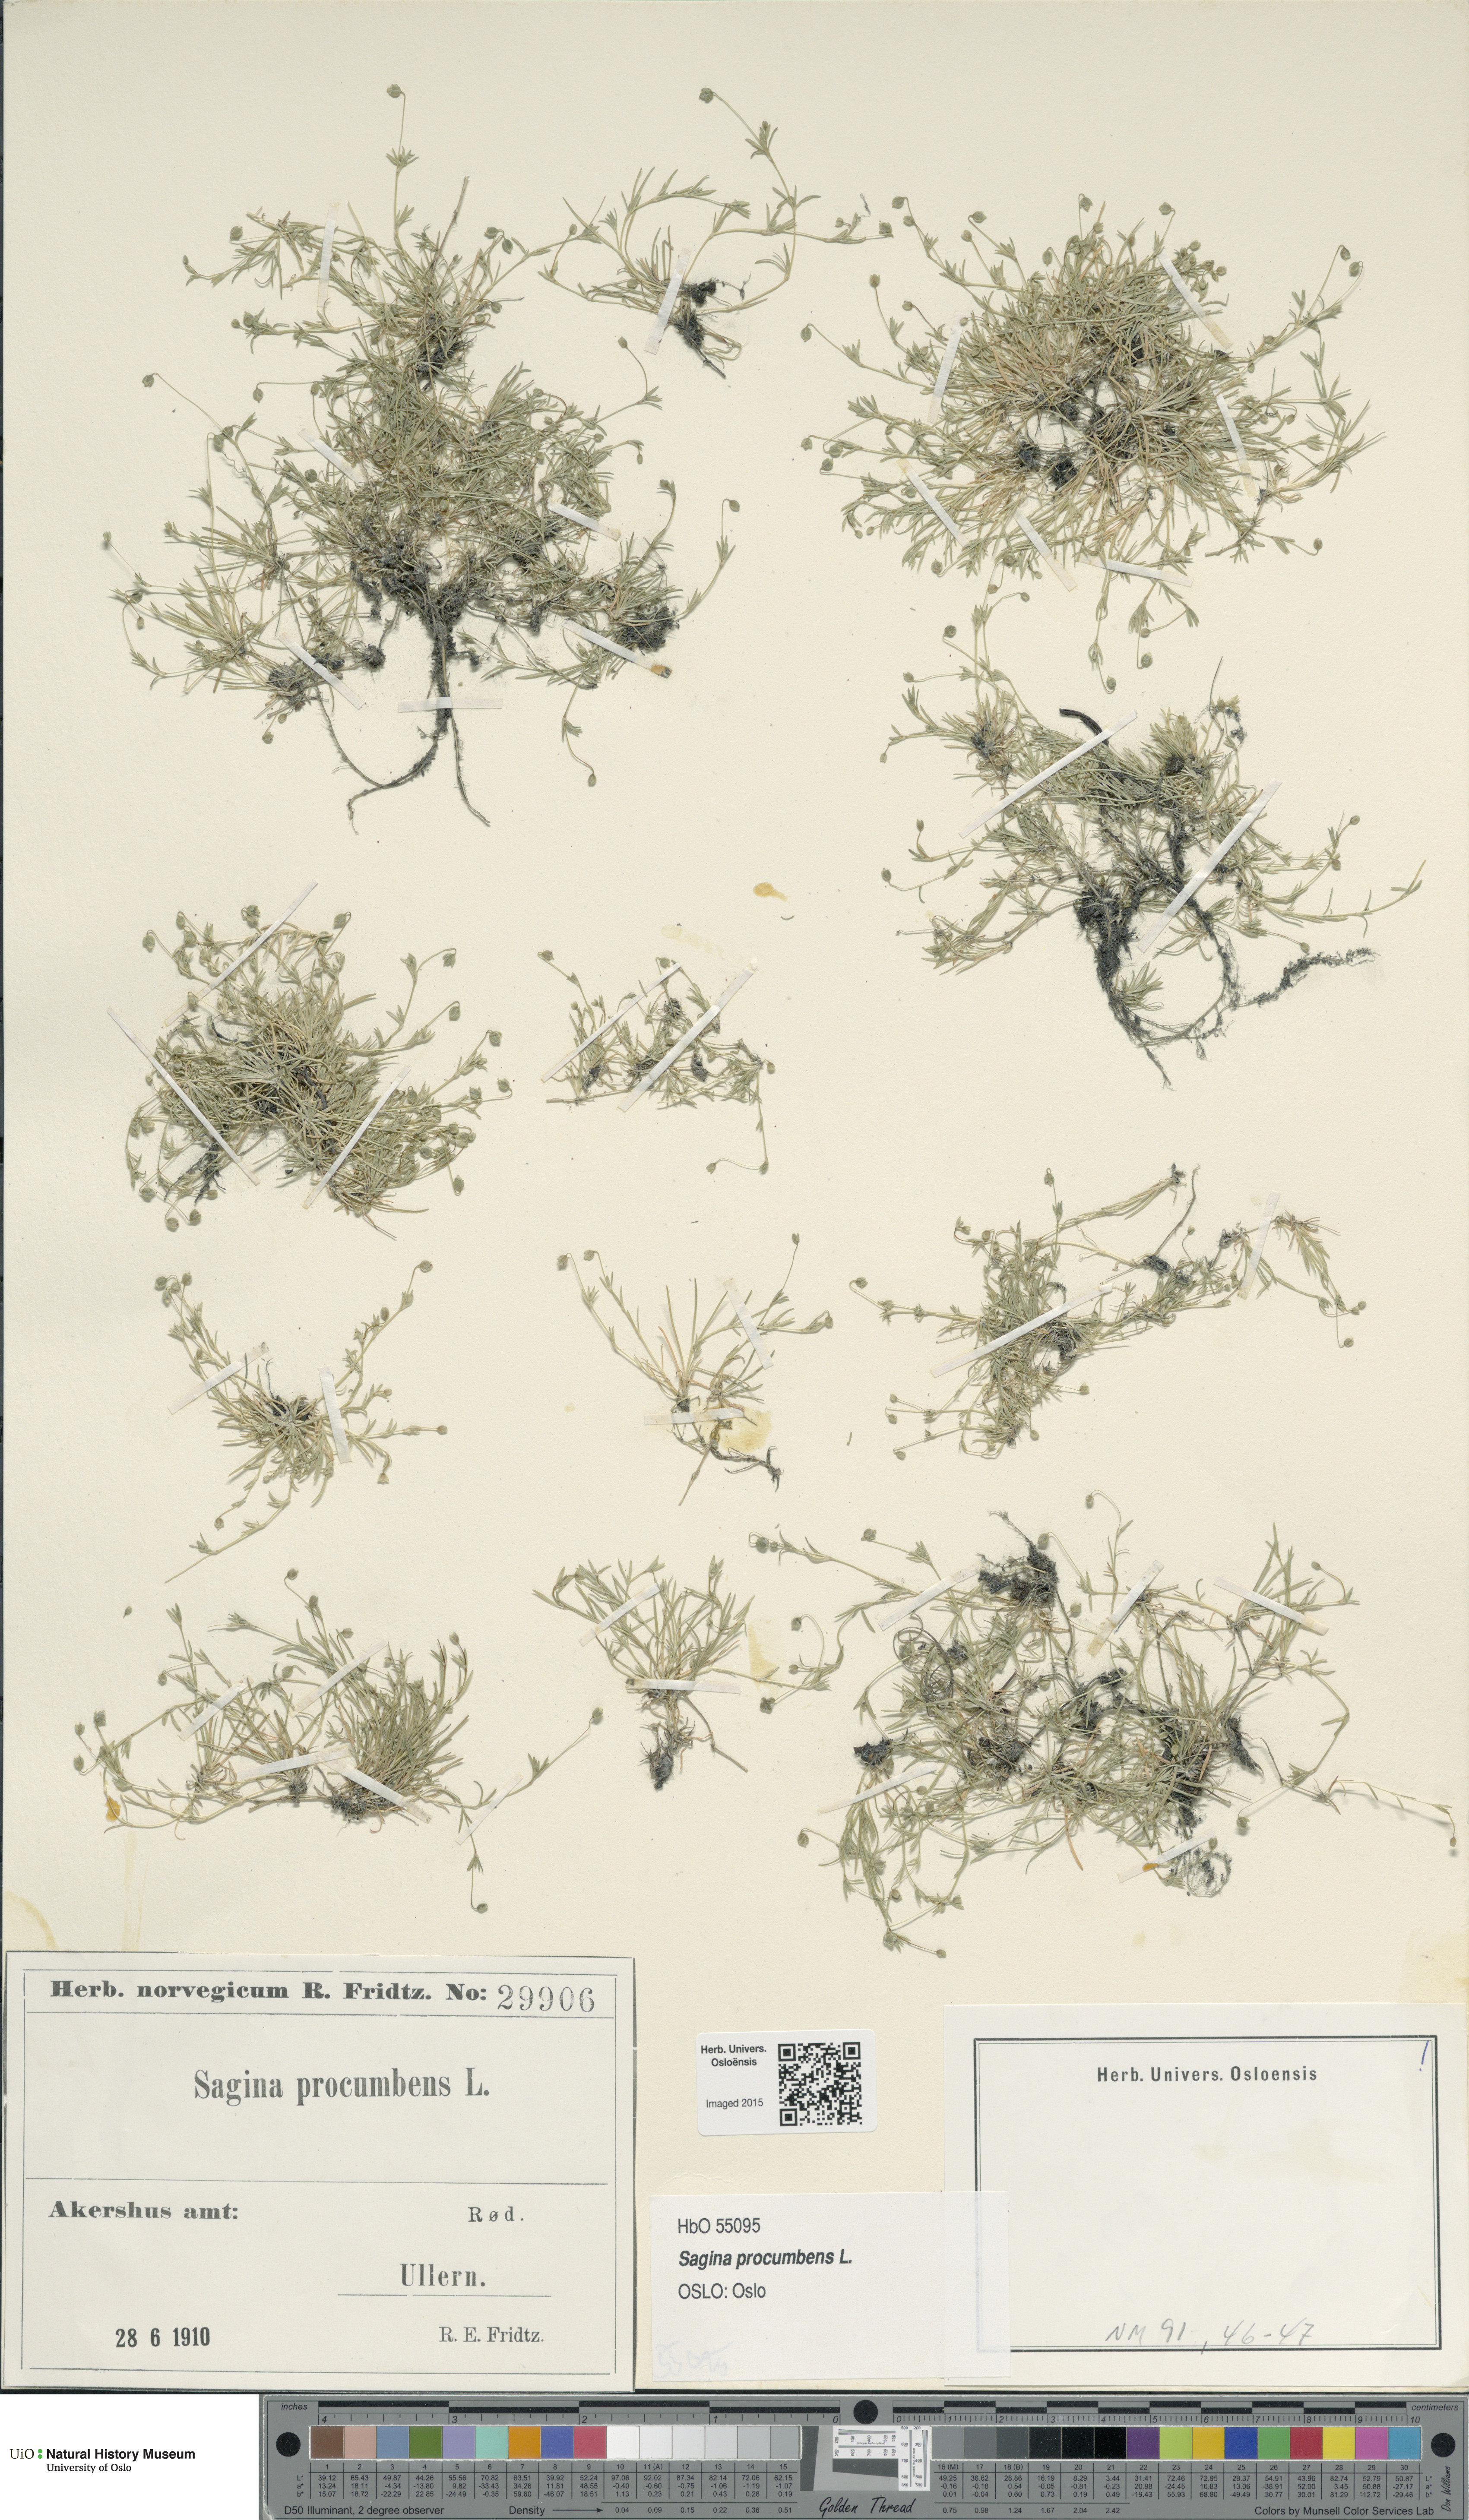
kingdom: Plantae
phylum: Tracheophyta
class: Magnoliopsida
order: Caryophyllales
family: Caryophyllaceae
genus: Sagina
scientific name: Sagina procumbens
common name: Procumbent pearlwort
